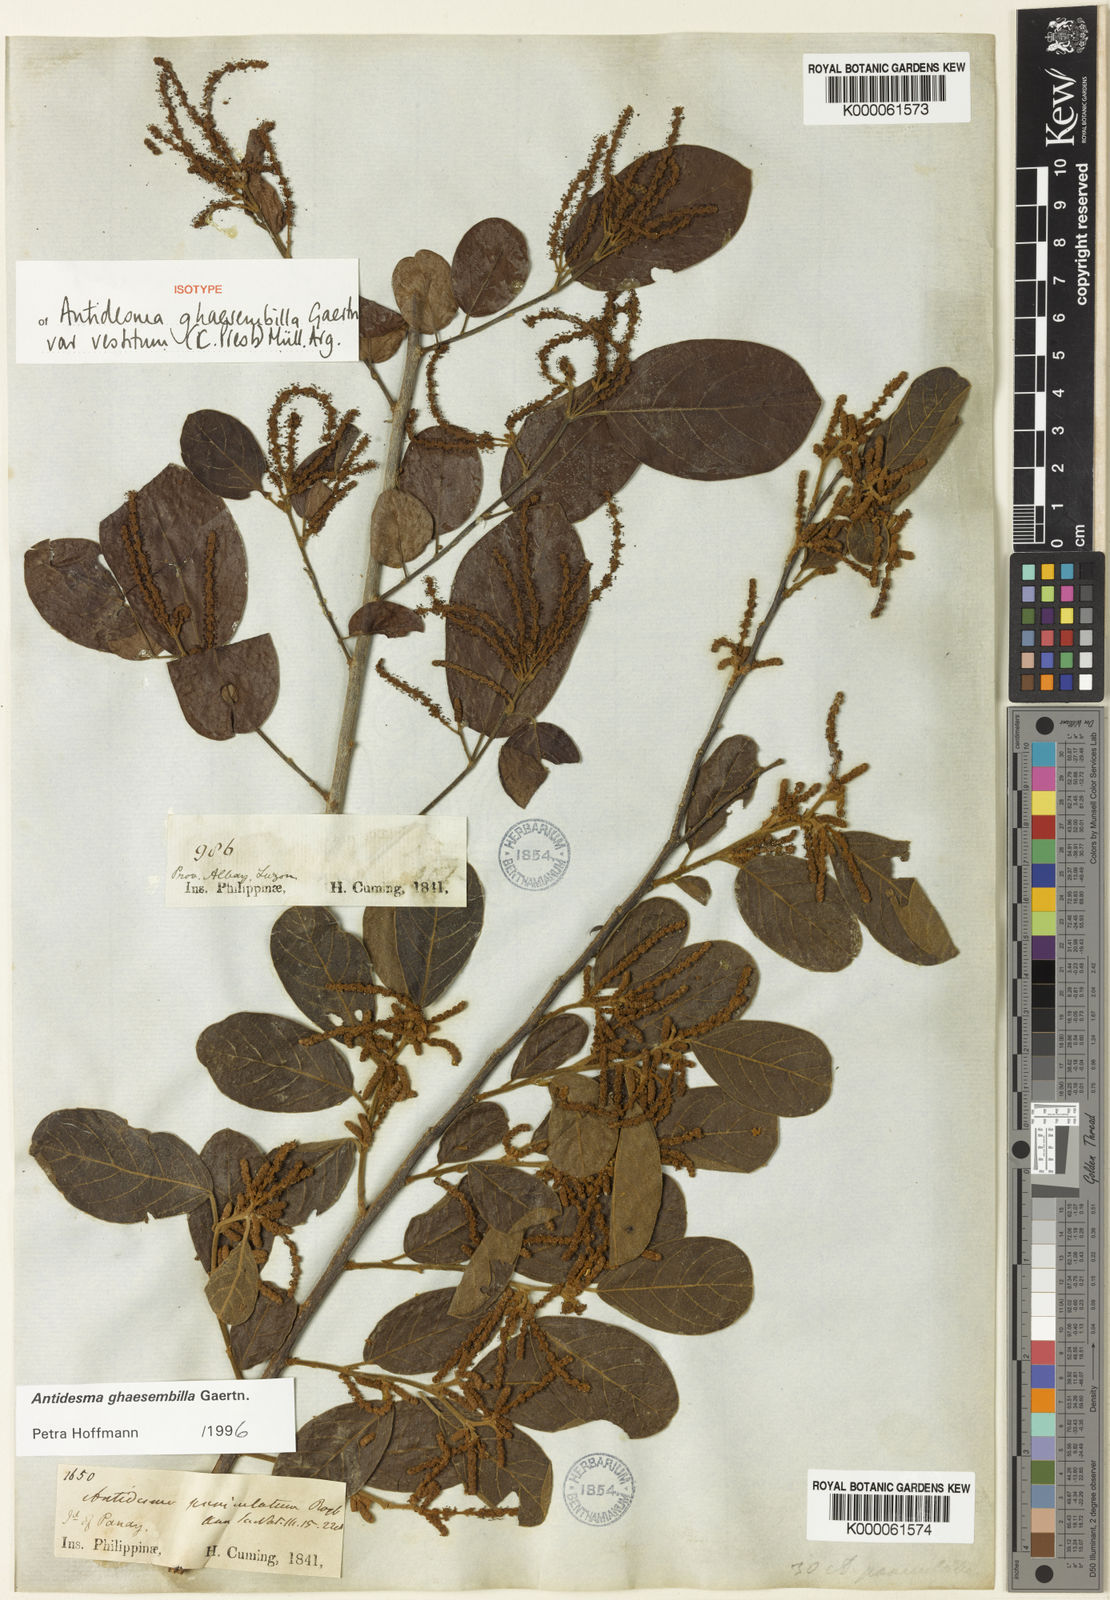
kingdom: Plantae
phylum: Tracheophyta
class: Magnoliopsida
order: Malpighiales
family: Phyllanthaceae
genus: Antidesma
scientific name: Antidesma ghaesembilla
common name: Black currant-tree
